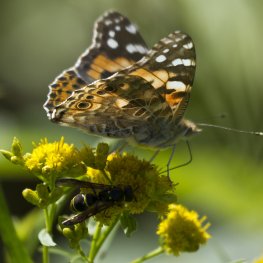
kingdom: Animalia
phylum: Arthropoda
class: Insecta
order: Lepidoptera
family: Nymphalidae
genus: Vanessa
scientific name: Vanessa cardui
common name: Painted Lady
